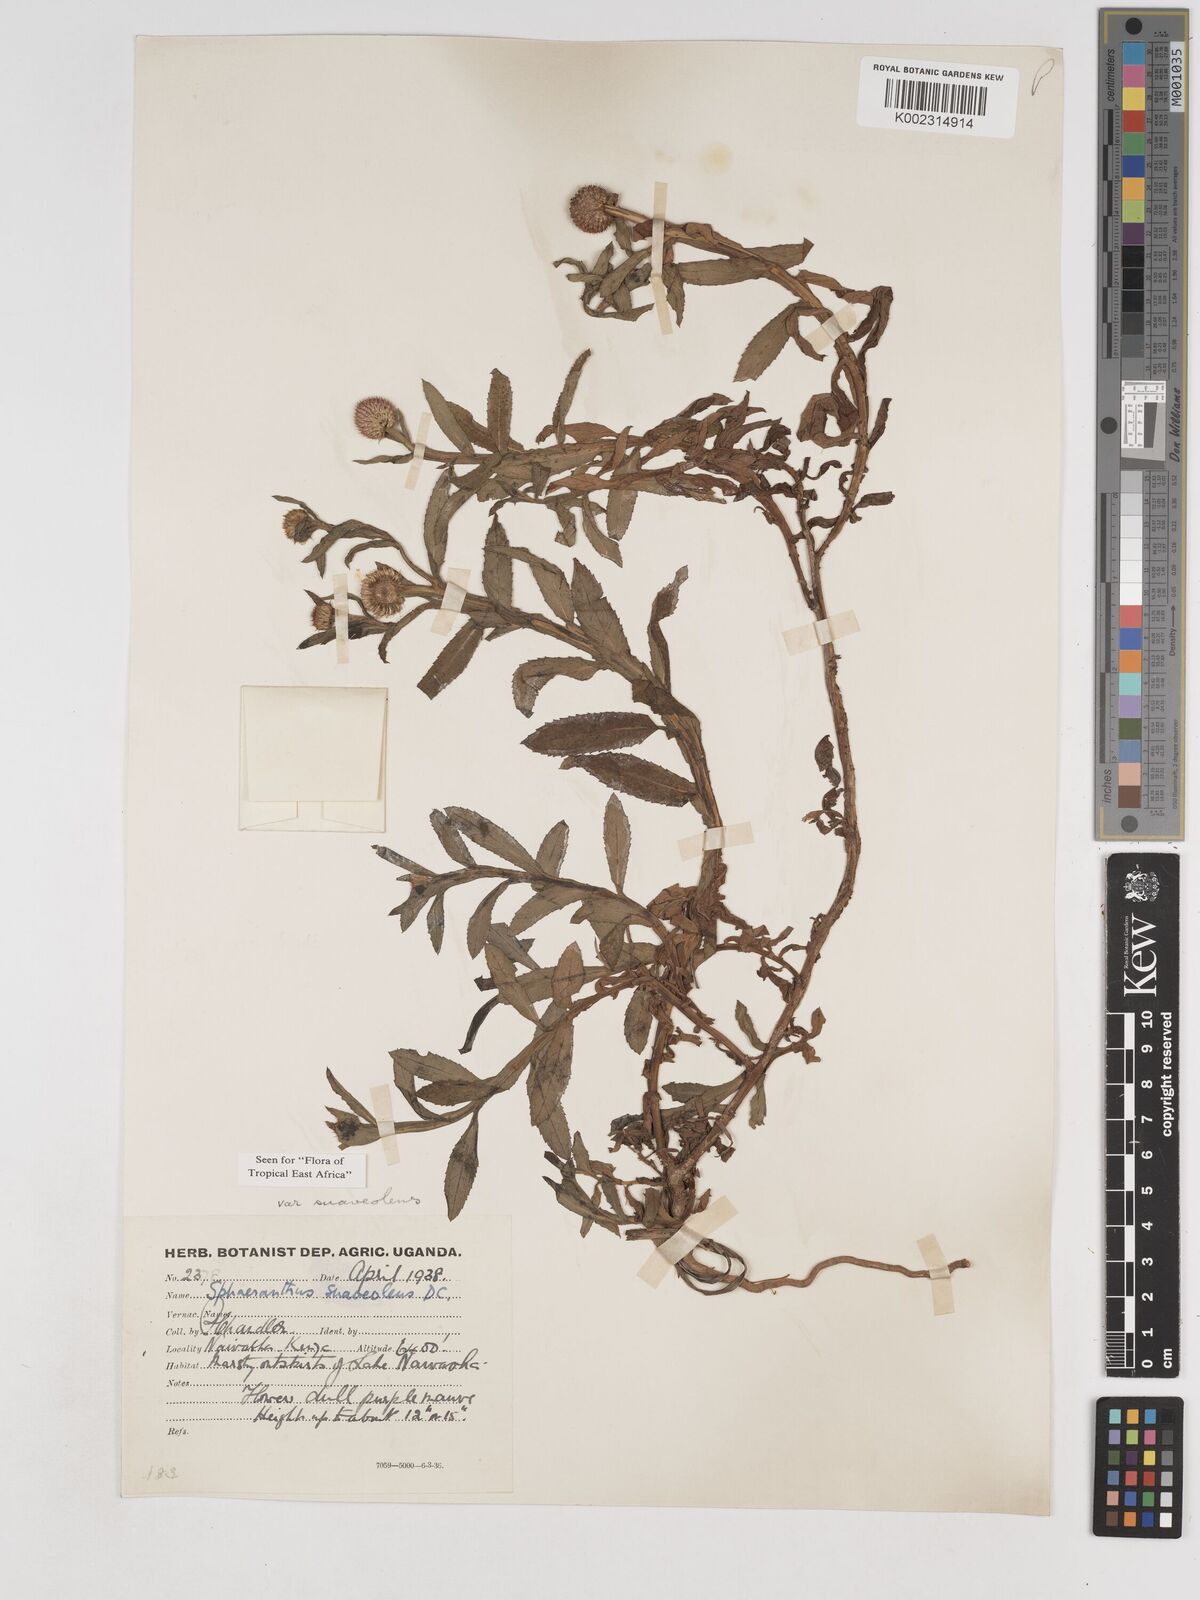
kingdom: Plantae
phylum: Tracheophyta
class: Magnoliopsida
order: Asterales
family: Asteraceae
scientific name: Asteraceae
